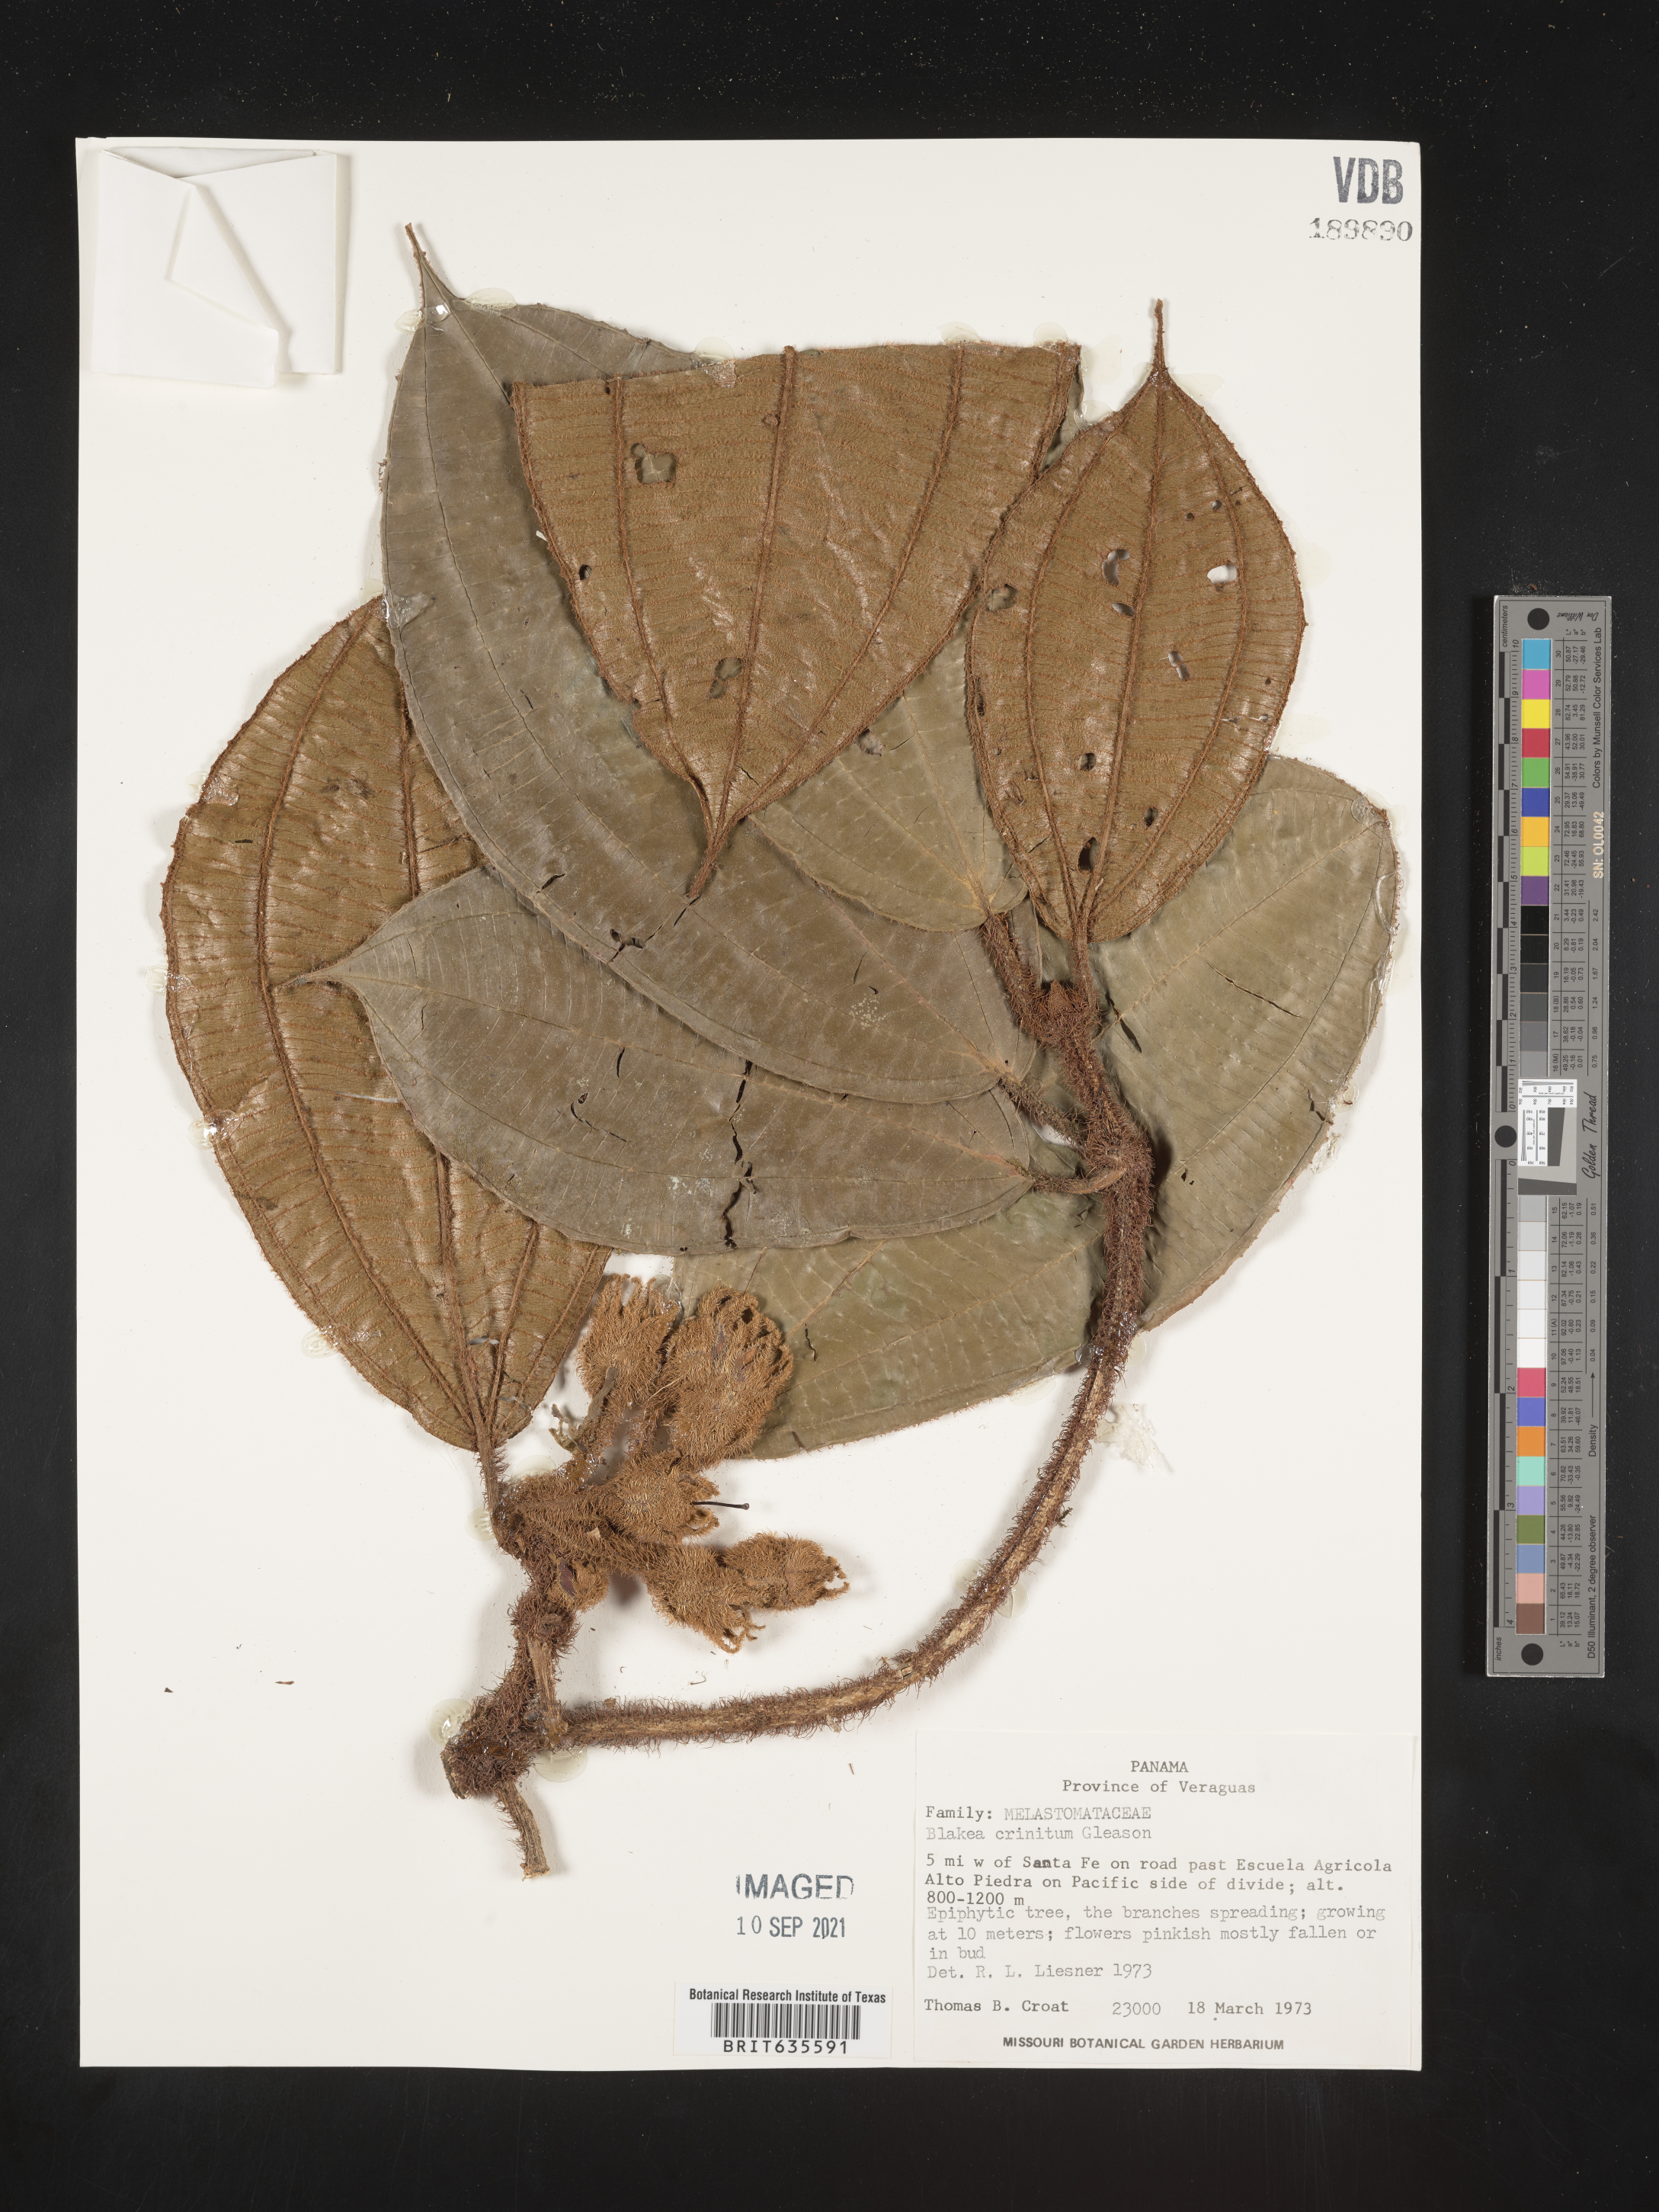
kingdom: Plantae
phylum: Tracheophyta
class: Magnoliopsida
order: Myrtales
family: Melastomataceae
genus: Blakea
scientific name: Blakea
